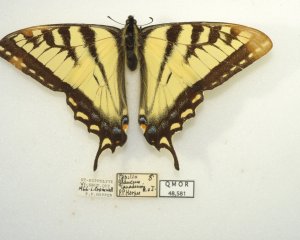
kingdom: Animalia
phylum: Arthropoda
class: Insecta
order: Lepidoptera
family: Papilionidae
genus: Pterourus
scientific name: Pterourus canadensis
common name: Canadian Tiger Swallowtail
